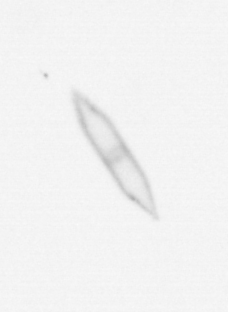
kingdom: Chromista
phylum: Ochrophyta
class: Bacillariophyceae
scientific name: Bacillariophyceae
